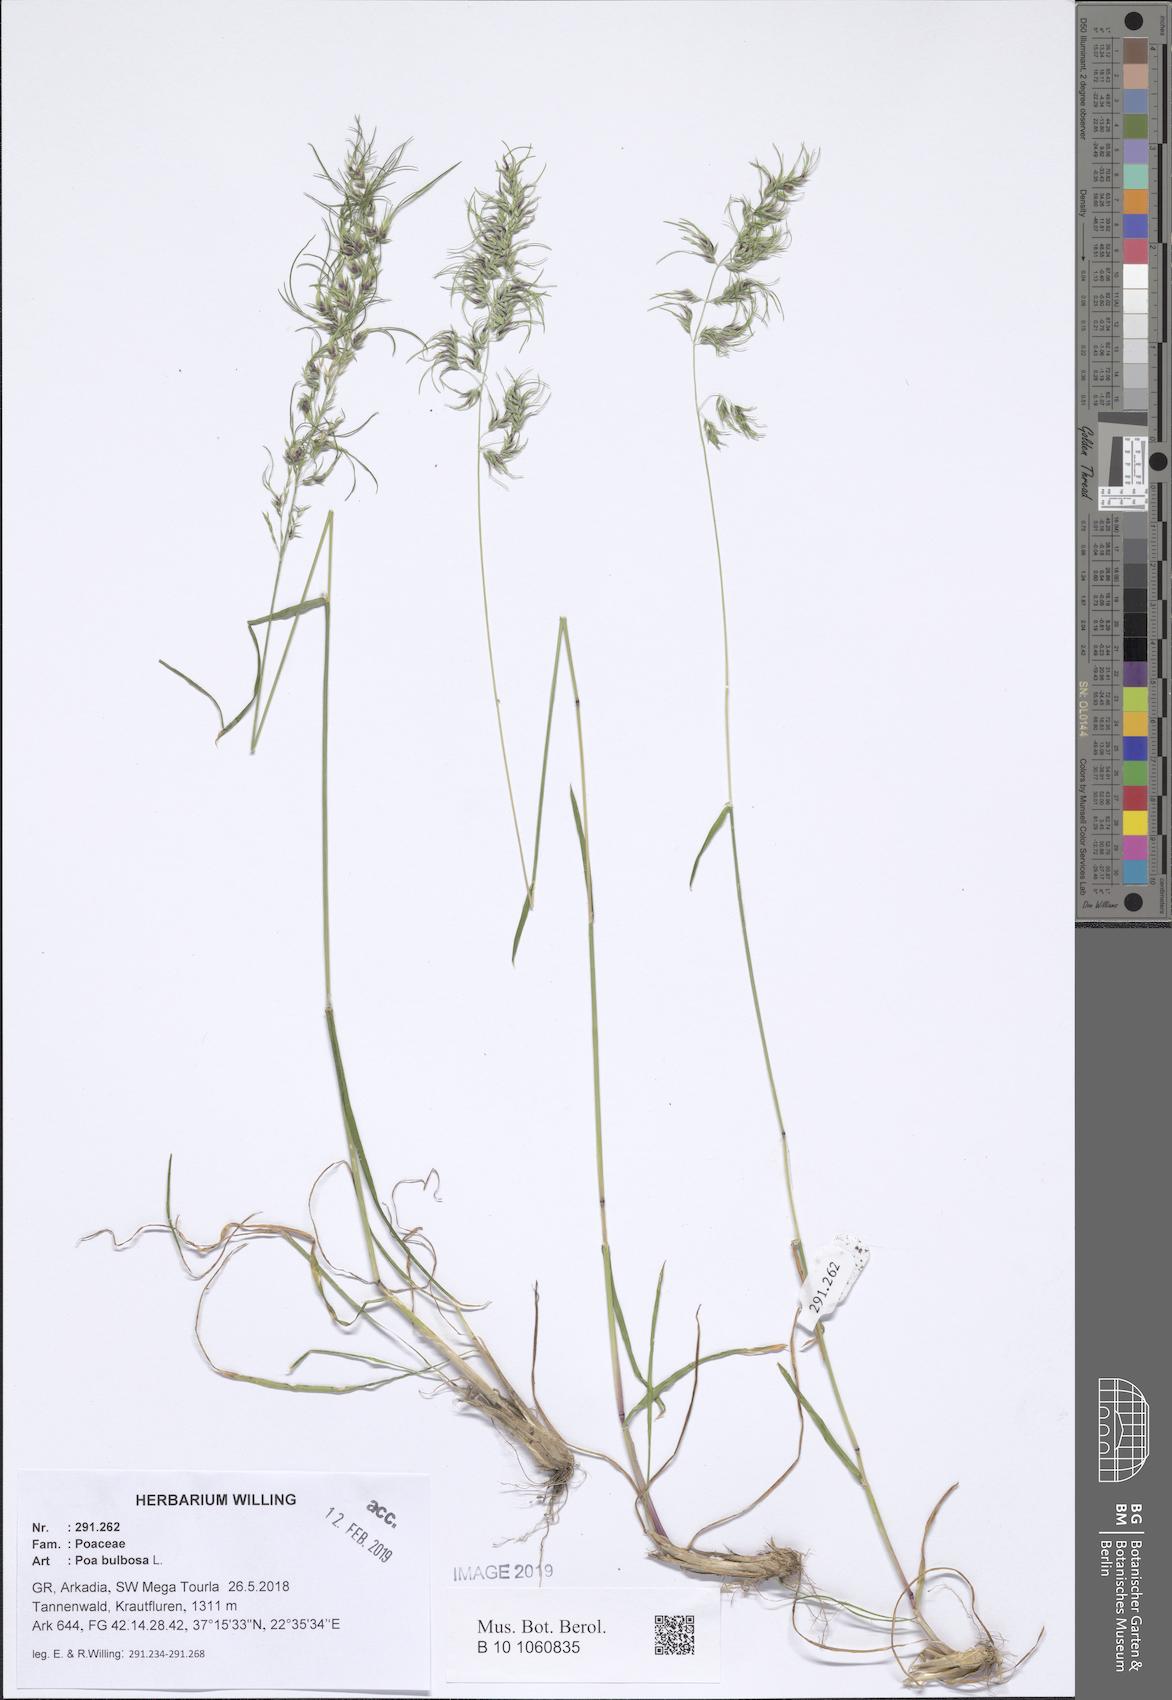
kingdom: Plantae
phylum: Tracheophyta
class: Liliopsida
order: Poales
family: Poaceae
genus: Poa
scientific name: Poa bulbosa
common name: Bulbous bluegrass
